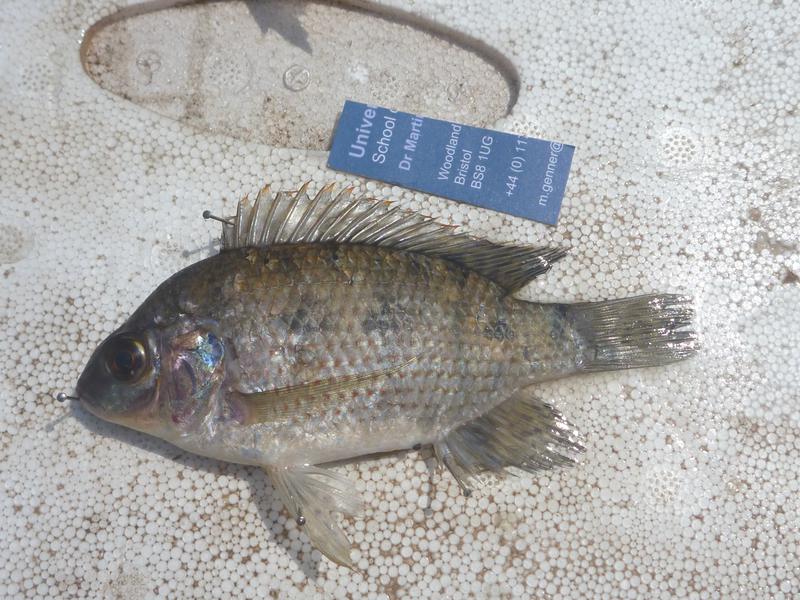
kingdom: Animalia
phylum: Chordata
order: Perciformes
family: Cichlidae
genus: Oreochromis
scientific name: Oreochromis upembae
